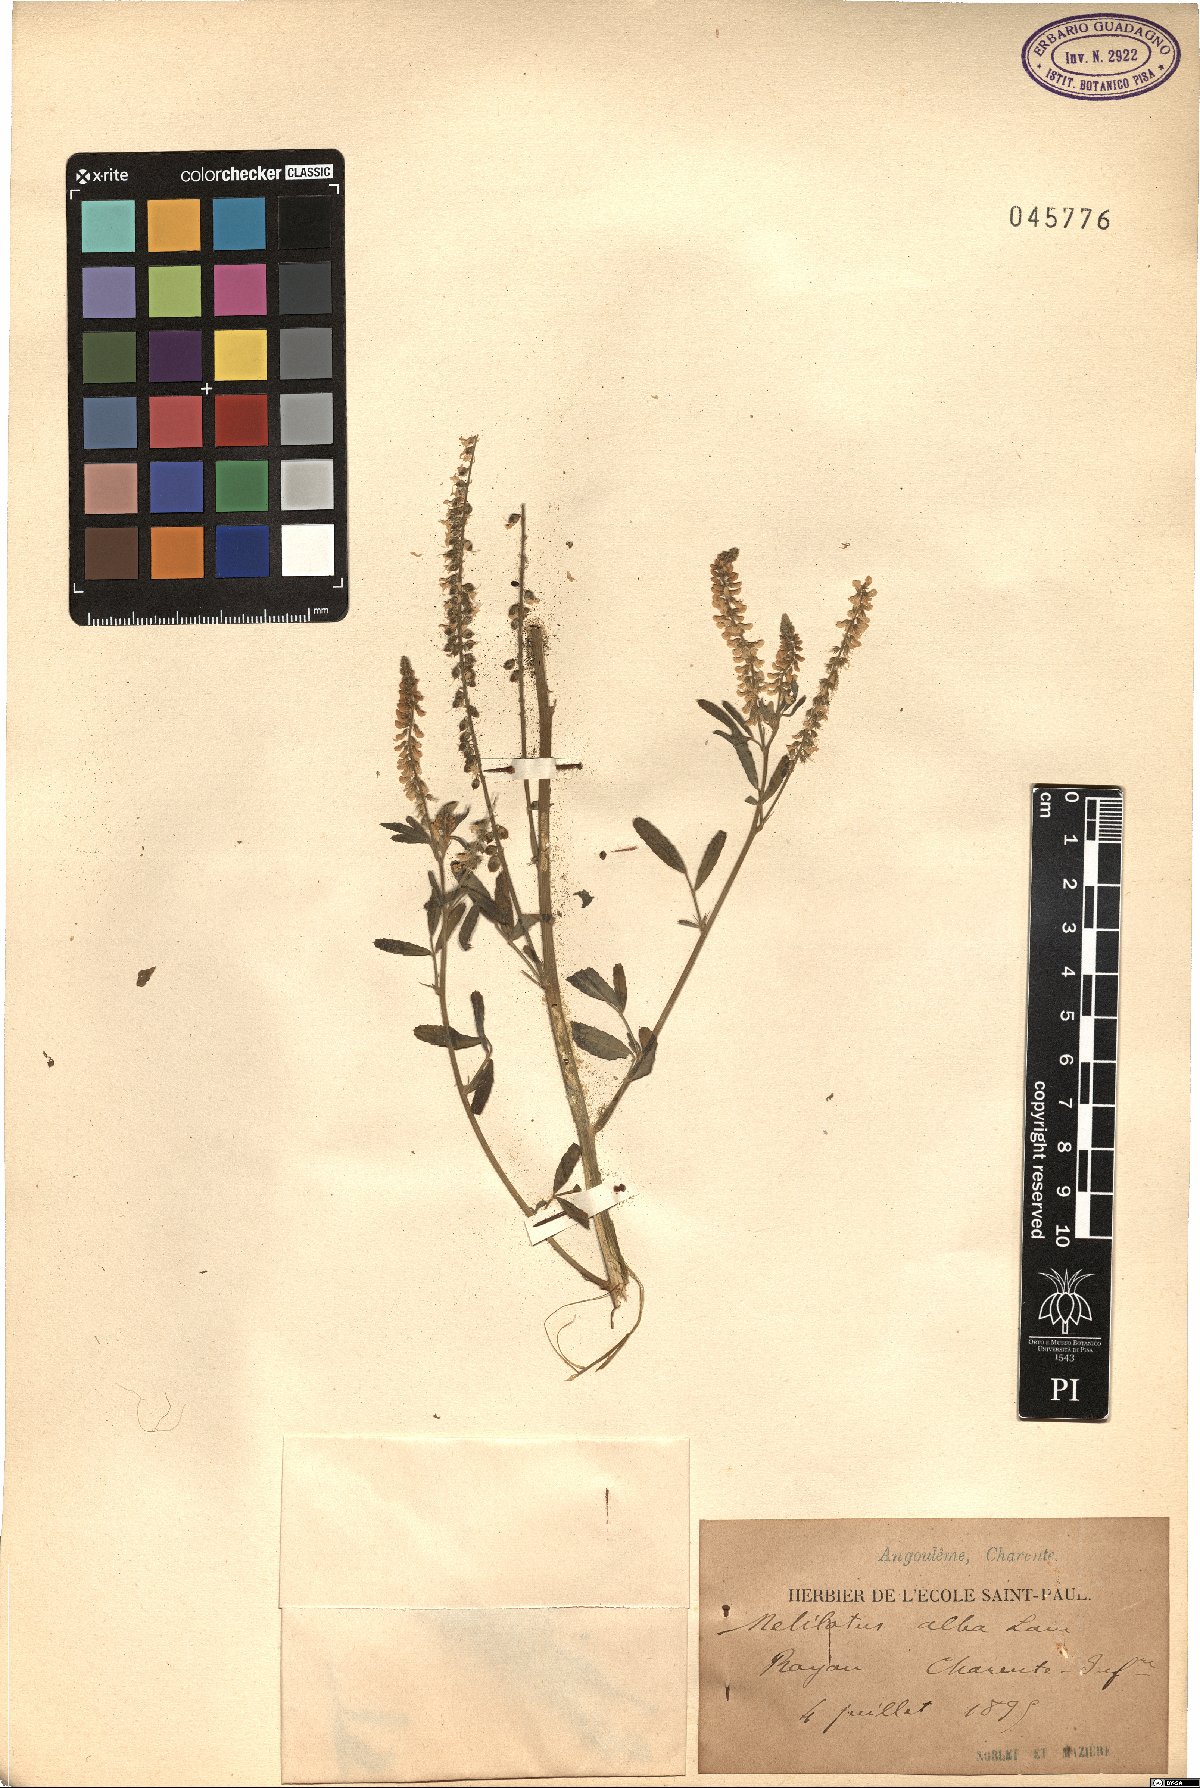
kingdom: Plantae
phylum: Tracheophyta
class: Magnoliopsida
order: Fabales
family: Fabaceae
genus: Melilotus
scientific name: Melilotus albus
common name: White melilot
